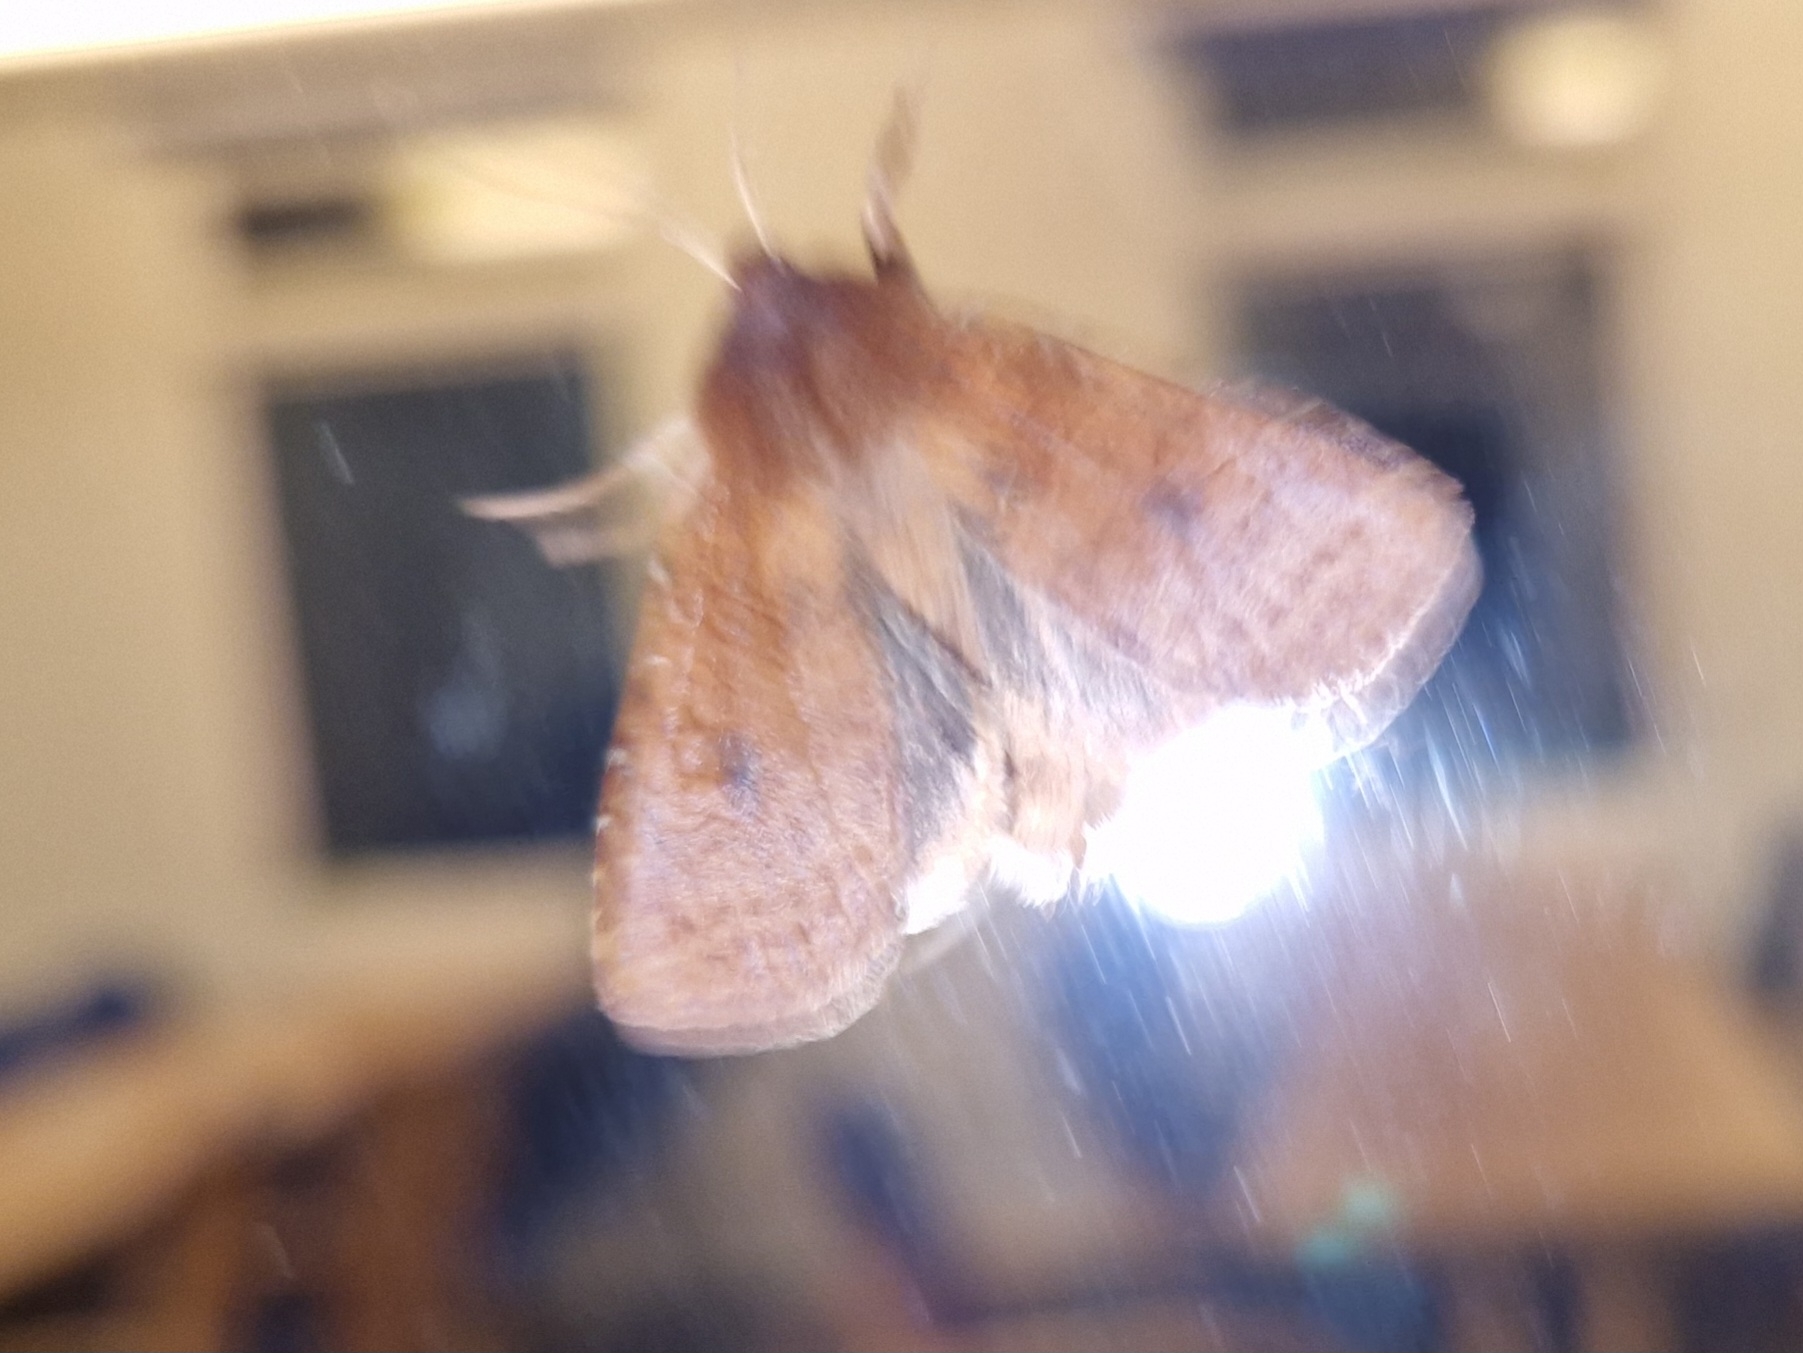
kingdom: Animalia
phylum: Arthropoda
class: Insecta
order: Lepidoptera
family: Noctuidae
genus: Conistra
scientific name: Conistra vaccinii
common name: Blåbærugle
